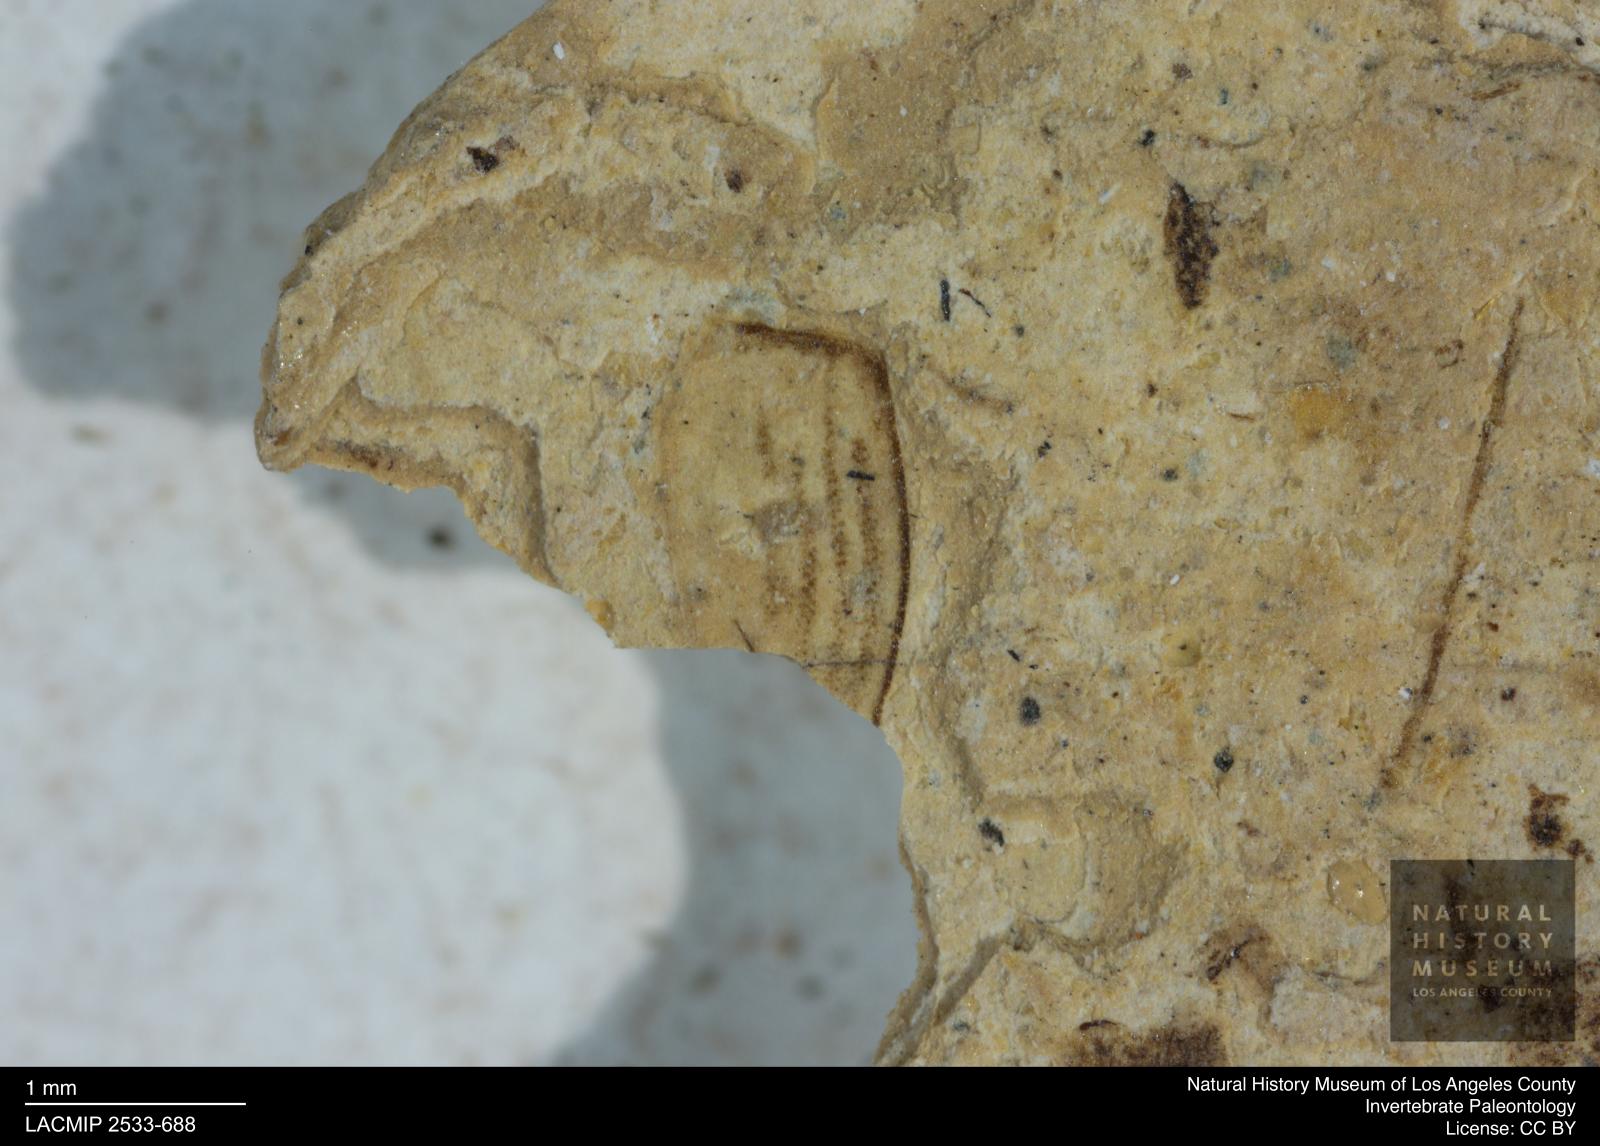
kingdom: Animalia
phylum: Arthropoda
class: Insecta
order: Coleoptera
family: Dytiscidae
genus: Oreodytes
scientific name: Oreodytes cryptolineatus
